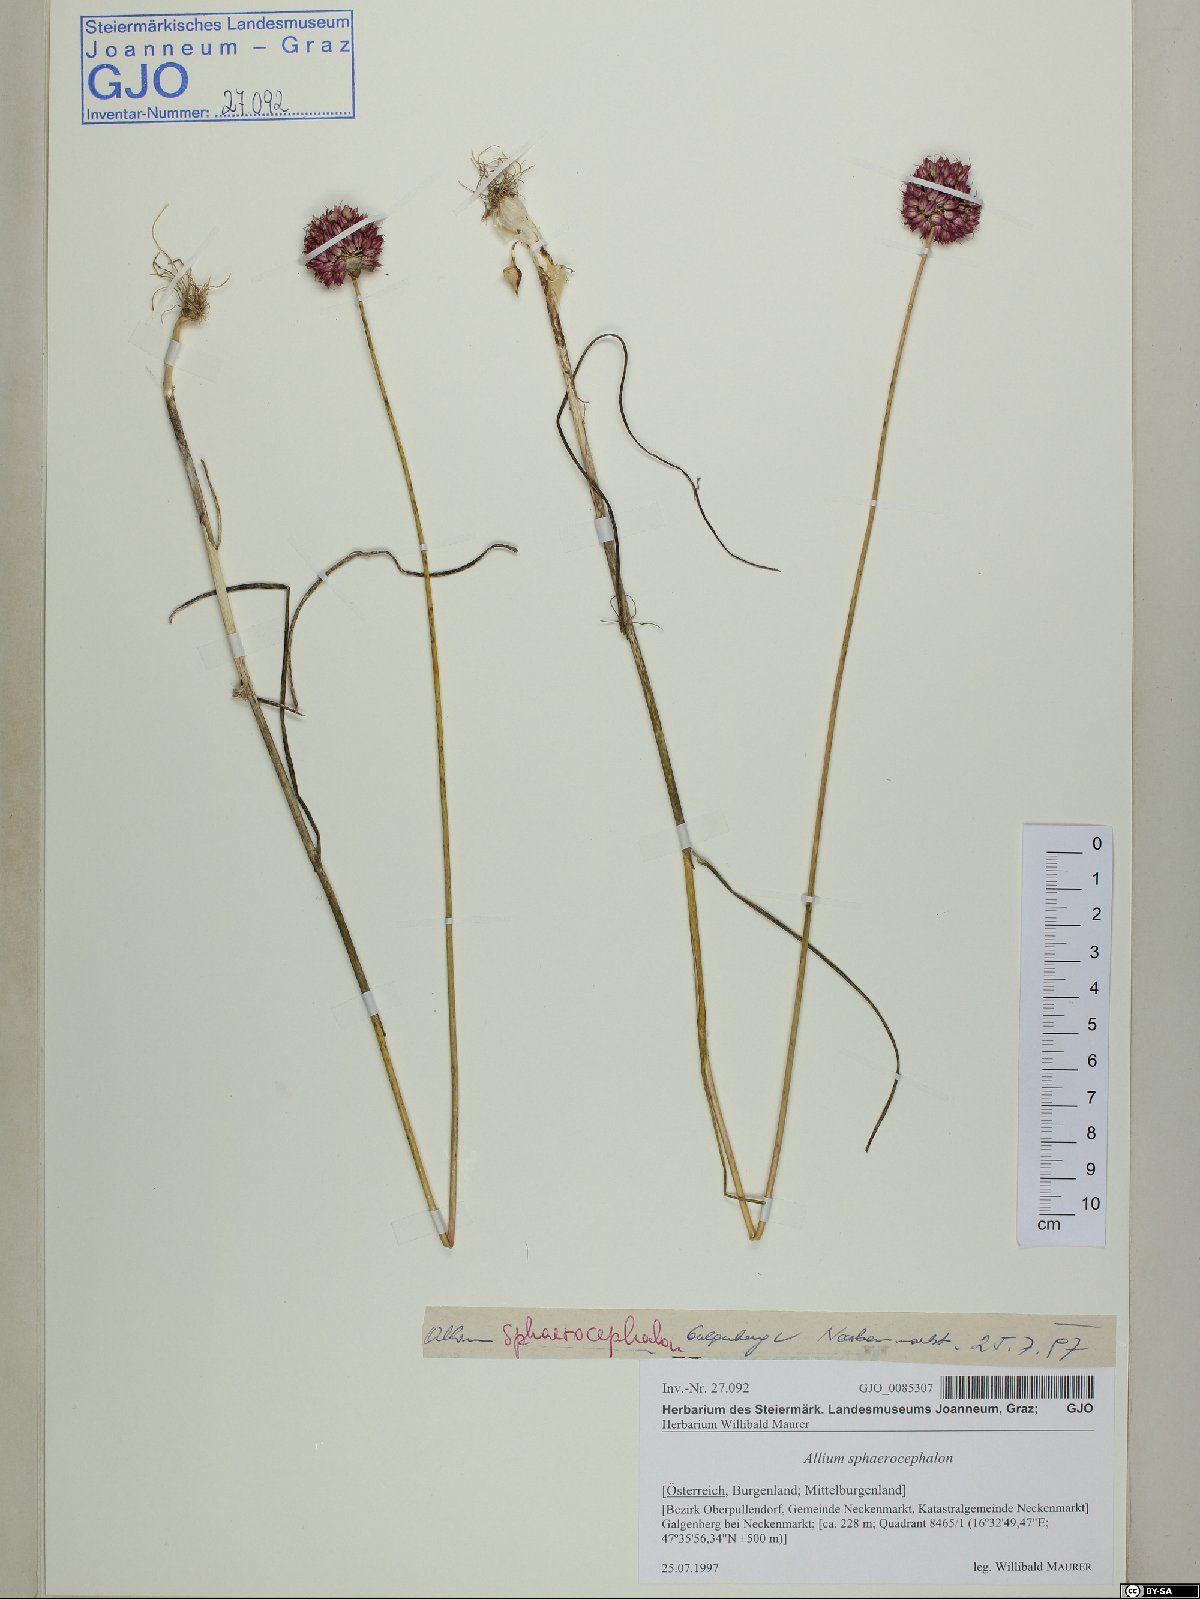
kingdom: Plantae
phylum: Tracheophyta
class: Liliopsida
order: Asparagales
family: Amaryllidaceae
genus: Allium
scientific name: Allium sphaerocephalon
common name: Round-headed leek
